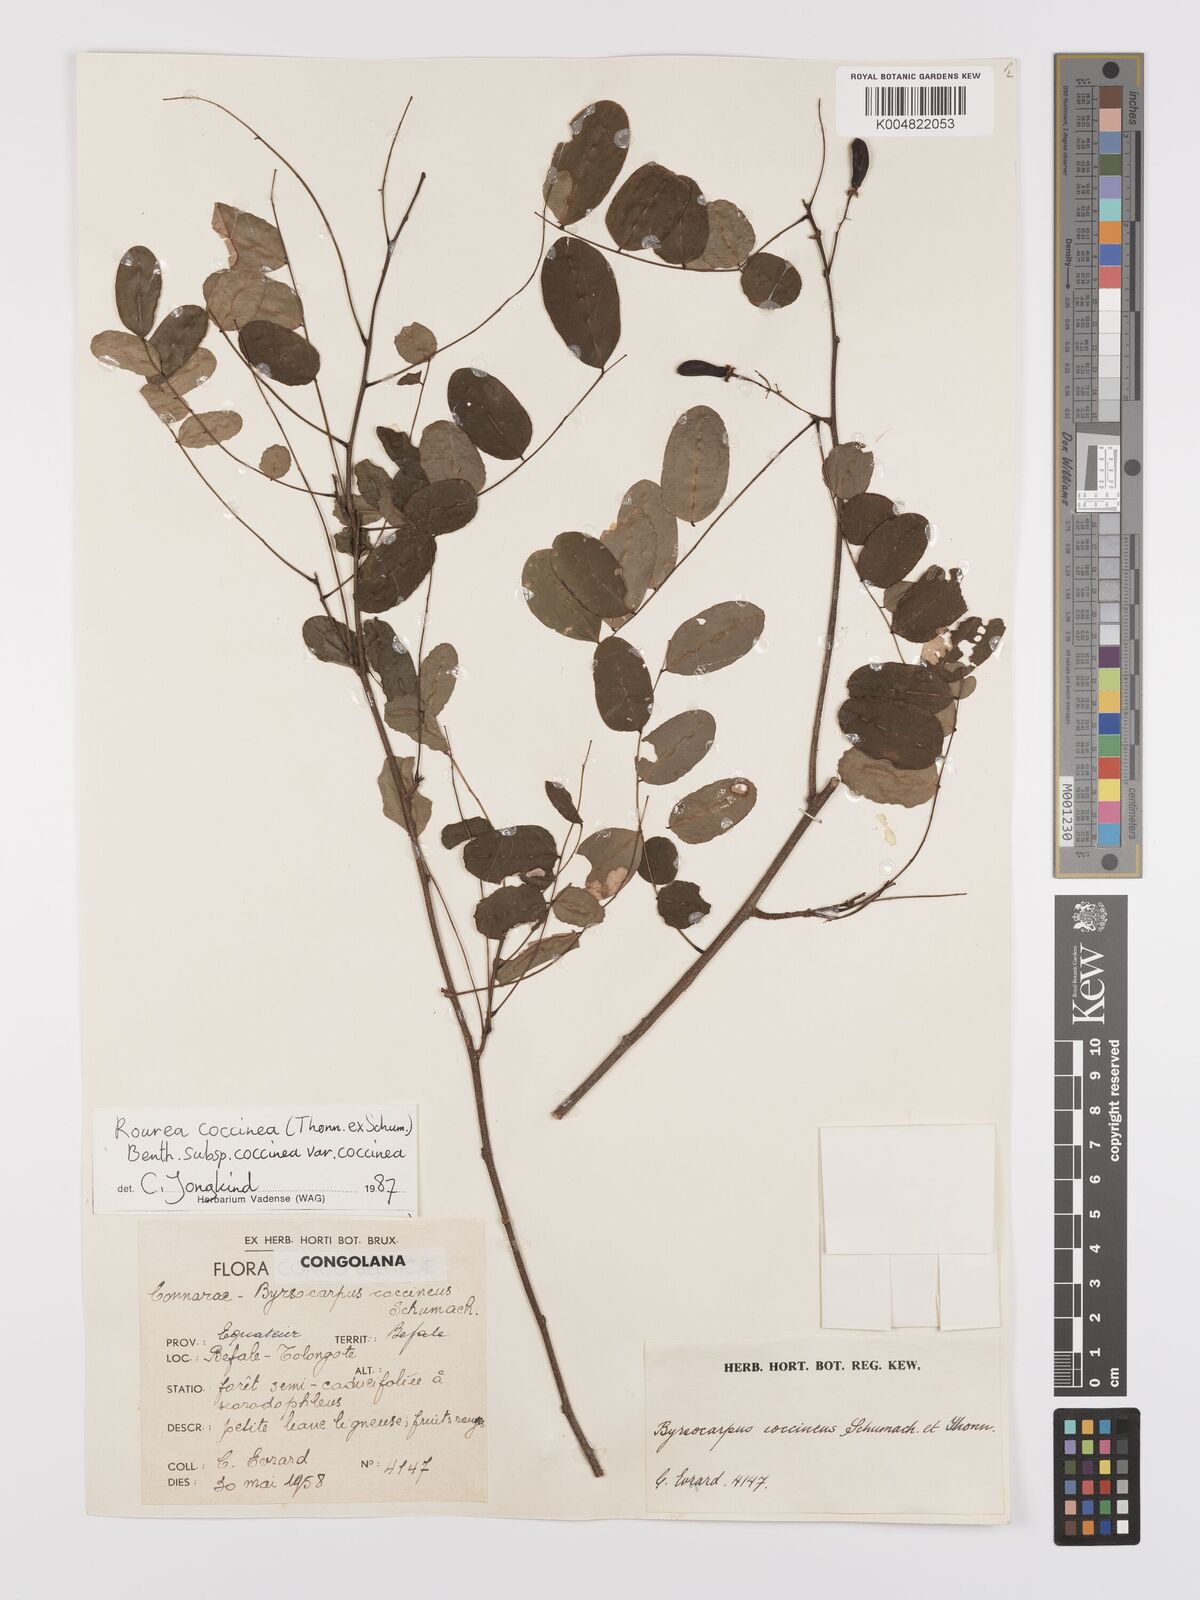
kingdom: Plantae
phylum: Tracheophyta
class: Magnoliopsida
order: Oxalidales
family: Connaraceae
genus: Rourea
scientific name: Rourea coccinea
